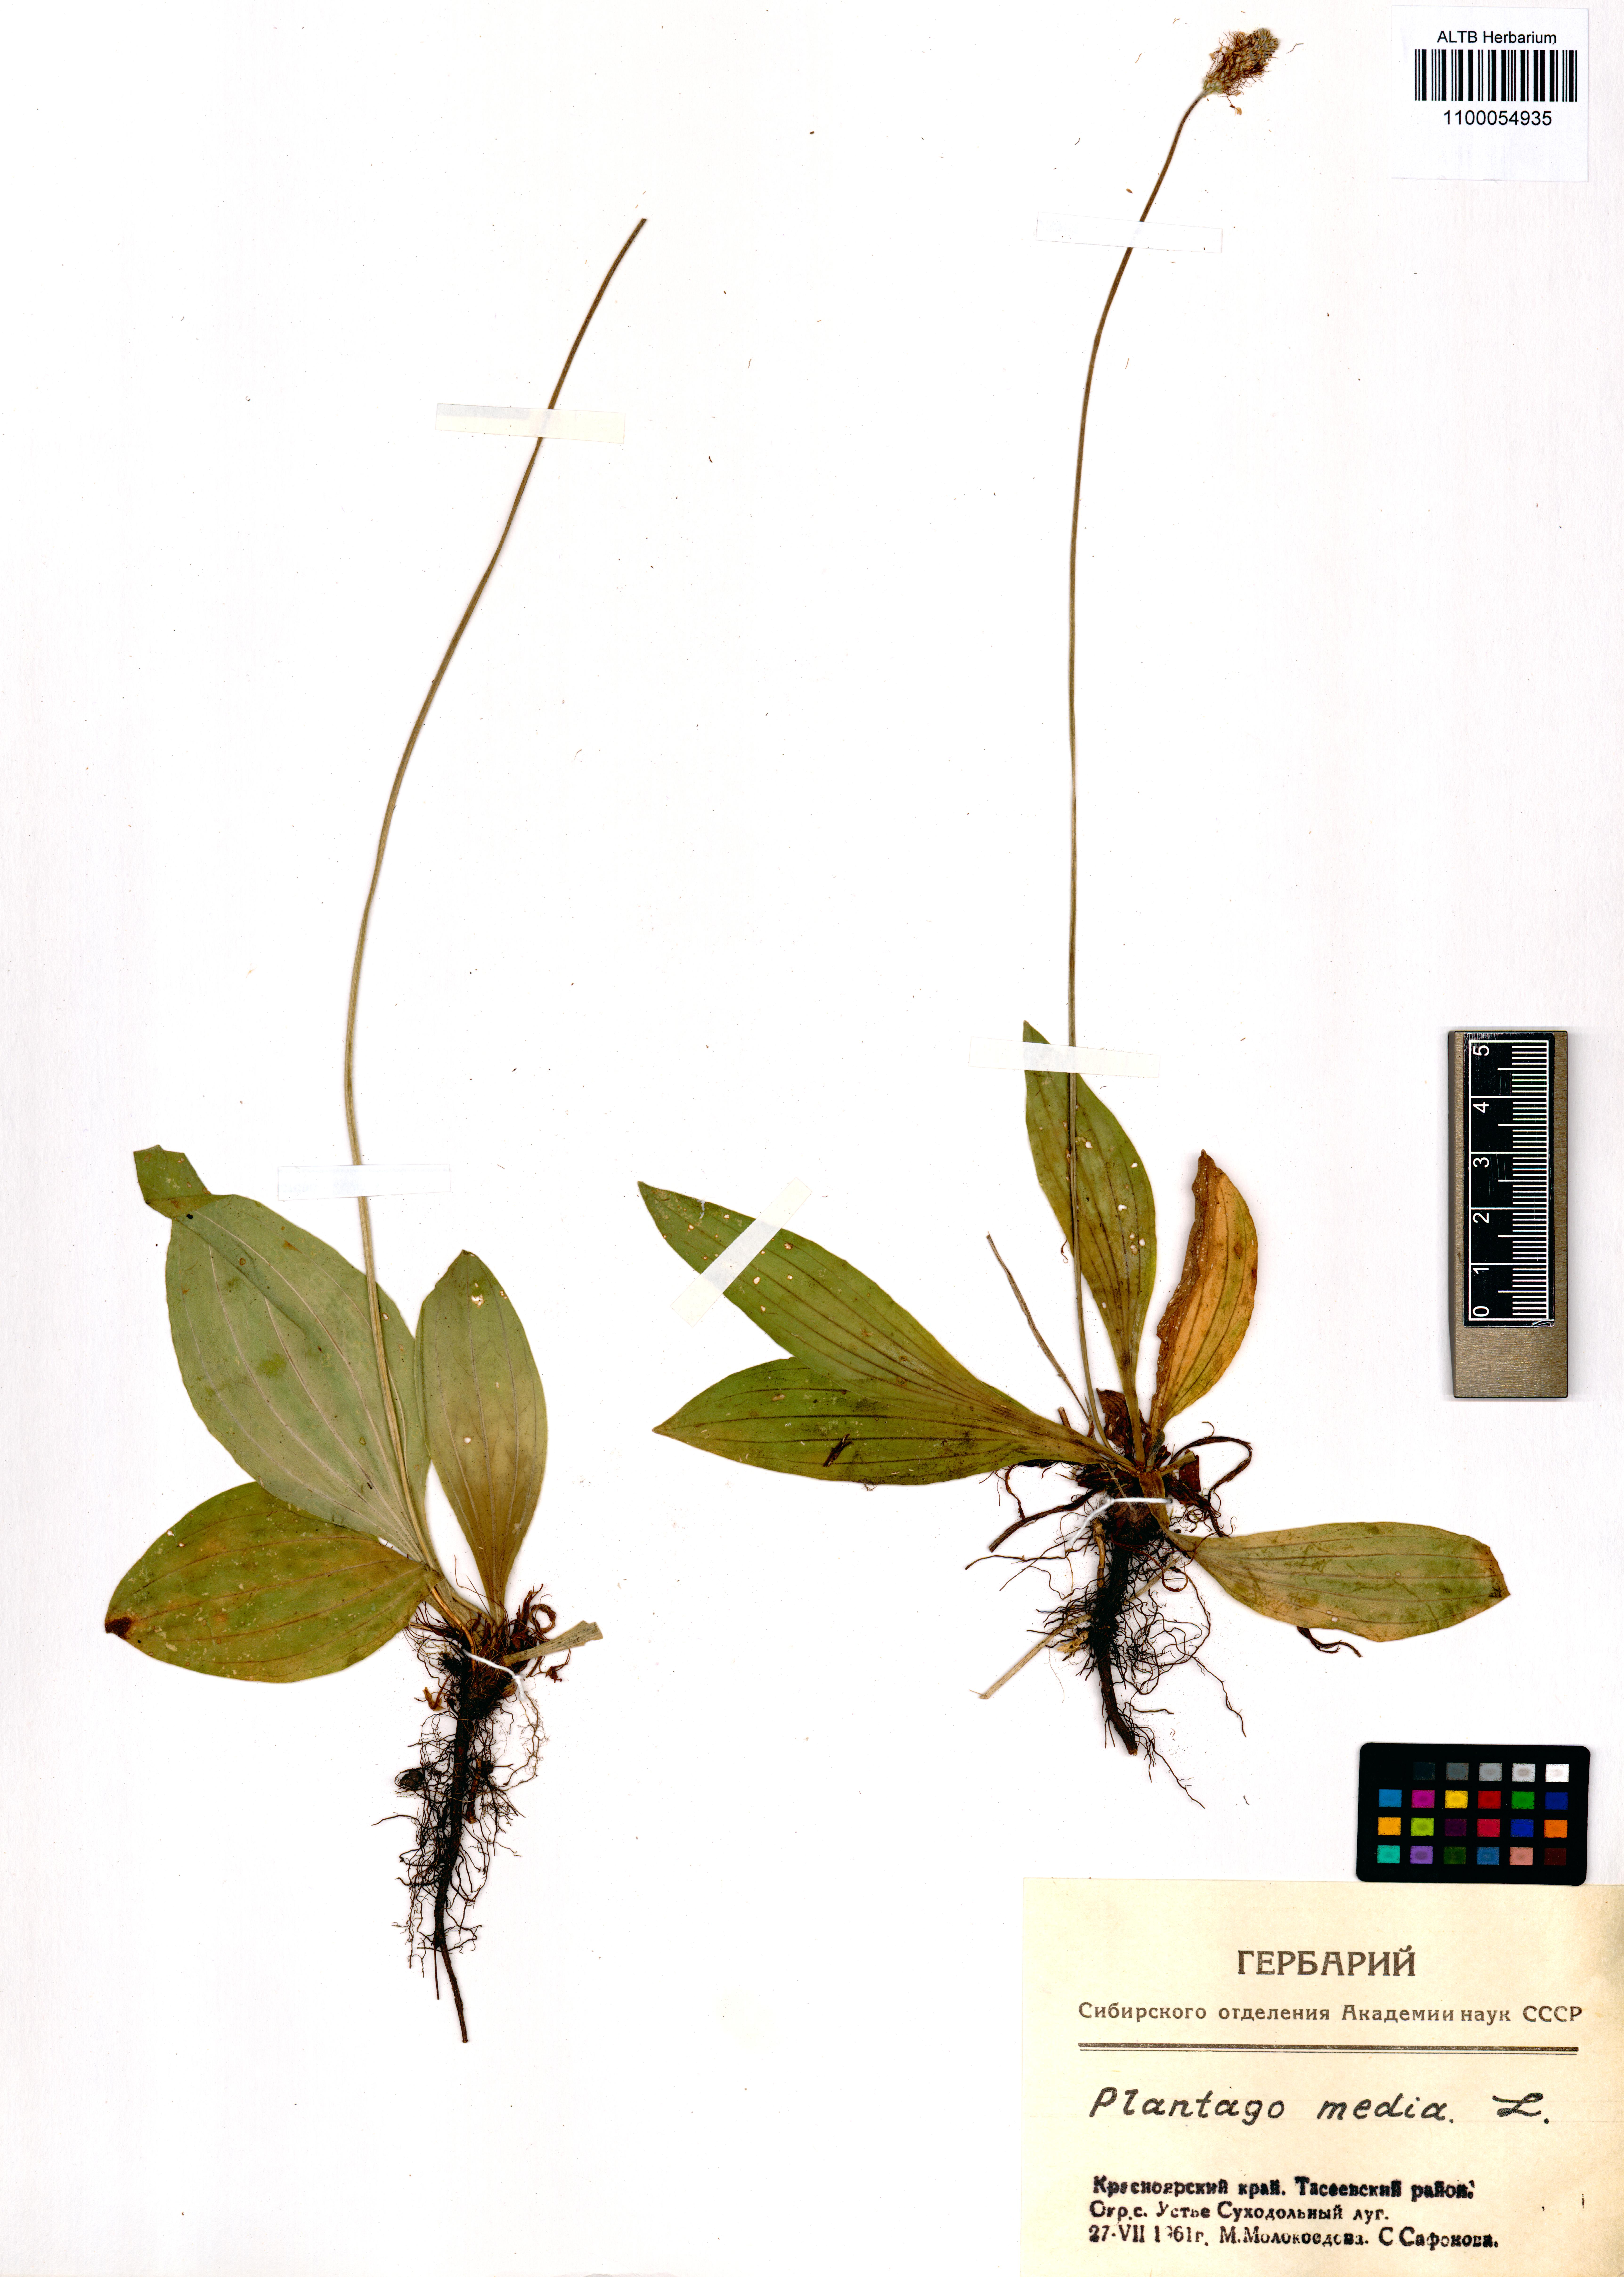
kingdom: Plantae
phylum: Tracheophyta
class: Magnoliopsida
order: Lamiales
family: Plantaginaceae
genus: Plantago
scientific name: Plantago media
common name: Hoary plantain
